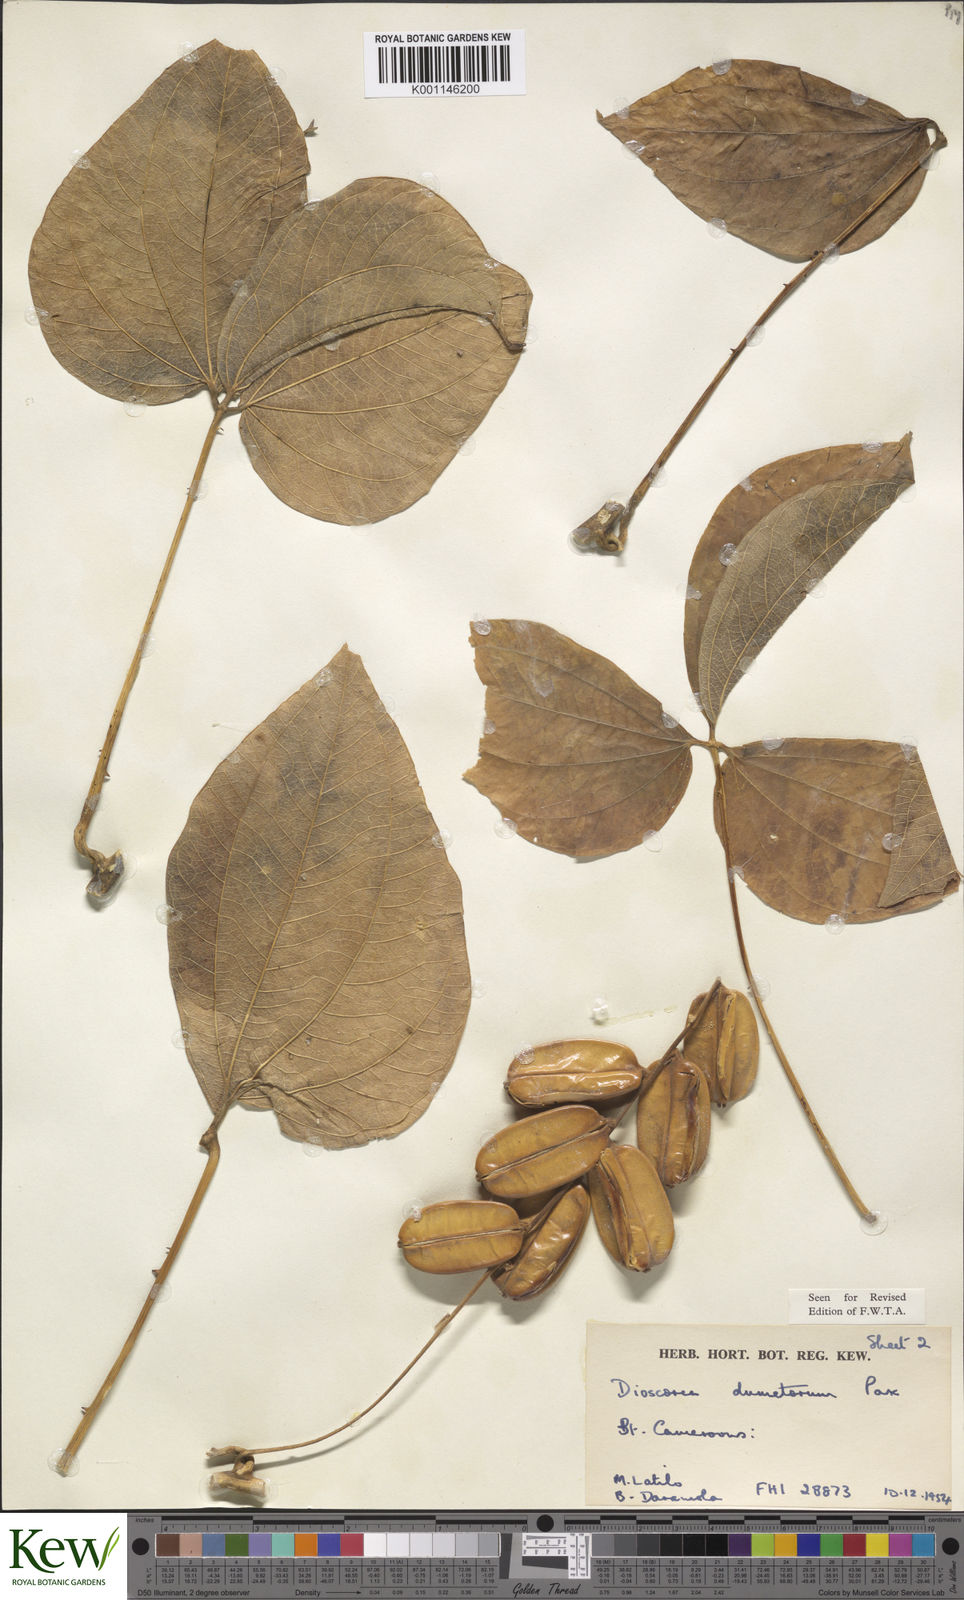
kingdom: Plantae
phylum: Tracheophyta
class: Liliopsida
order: Dioscoreales
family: Dioscoreaceae
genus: Dioscorea
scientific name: Dioscorea dumetorum
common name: African bitter yam
